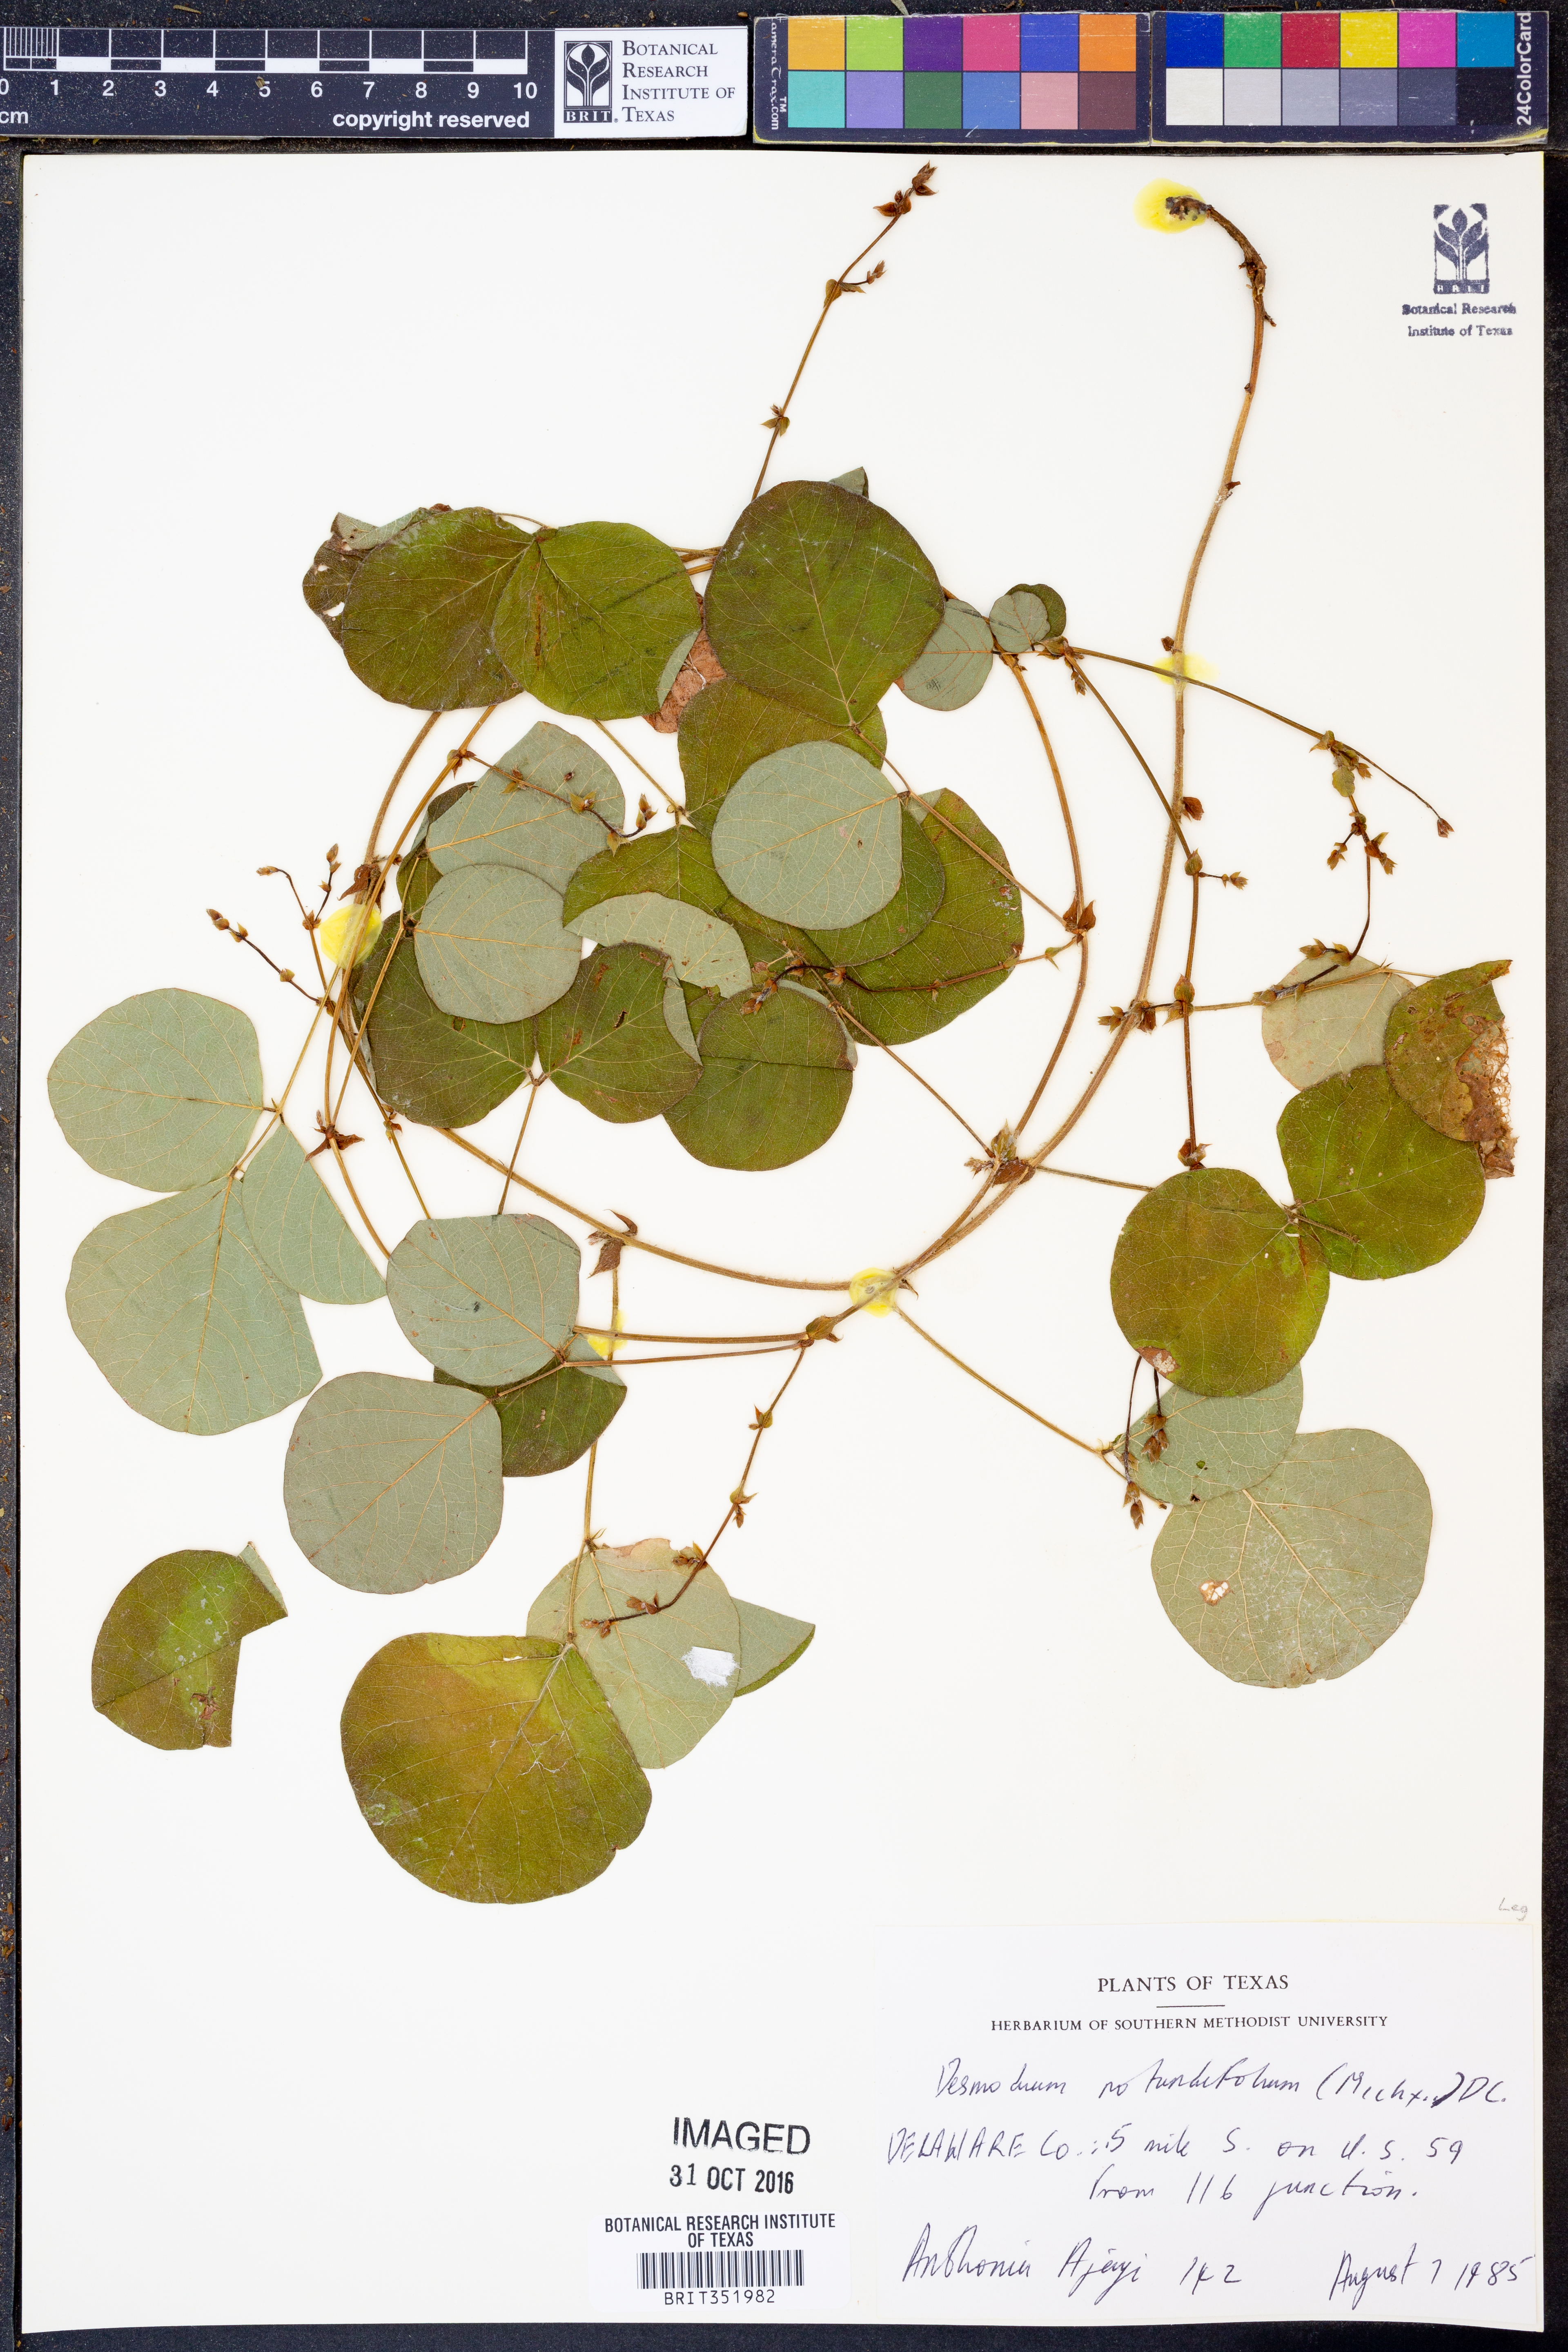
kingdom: Plantae
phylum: Tracheophyta
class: Magnoliopsida
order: Fabales
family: Fabaceae
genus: Desmodium
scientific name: Desmodium rotundifolium
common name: Dollarleaf
